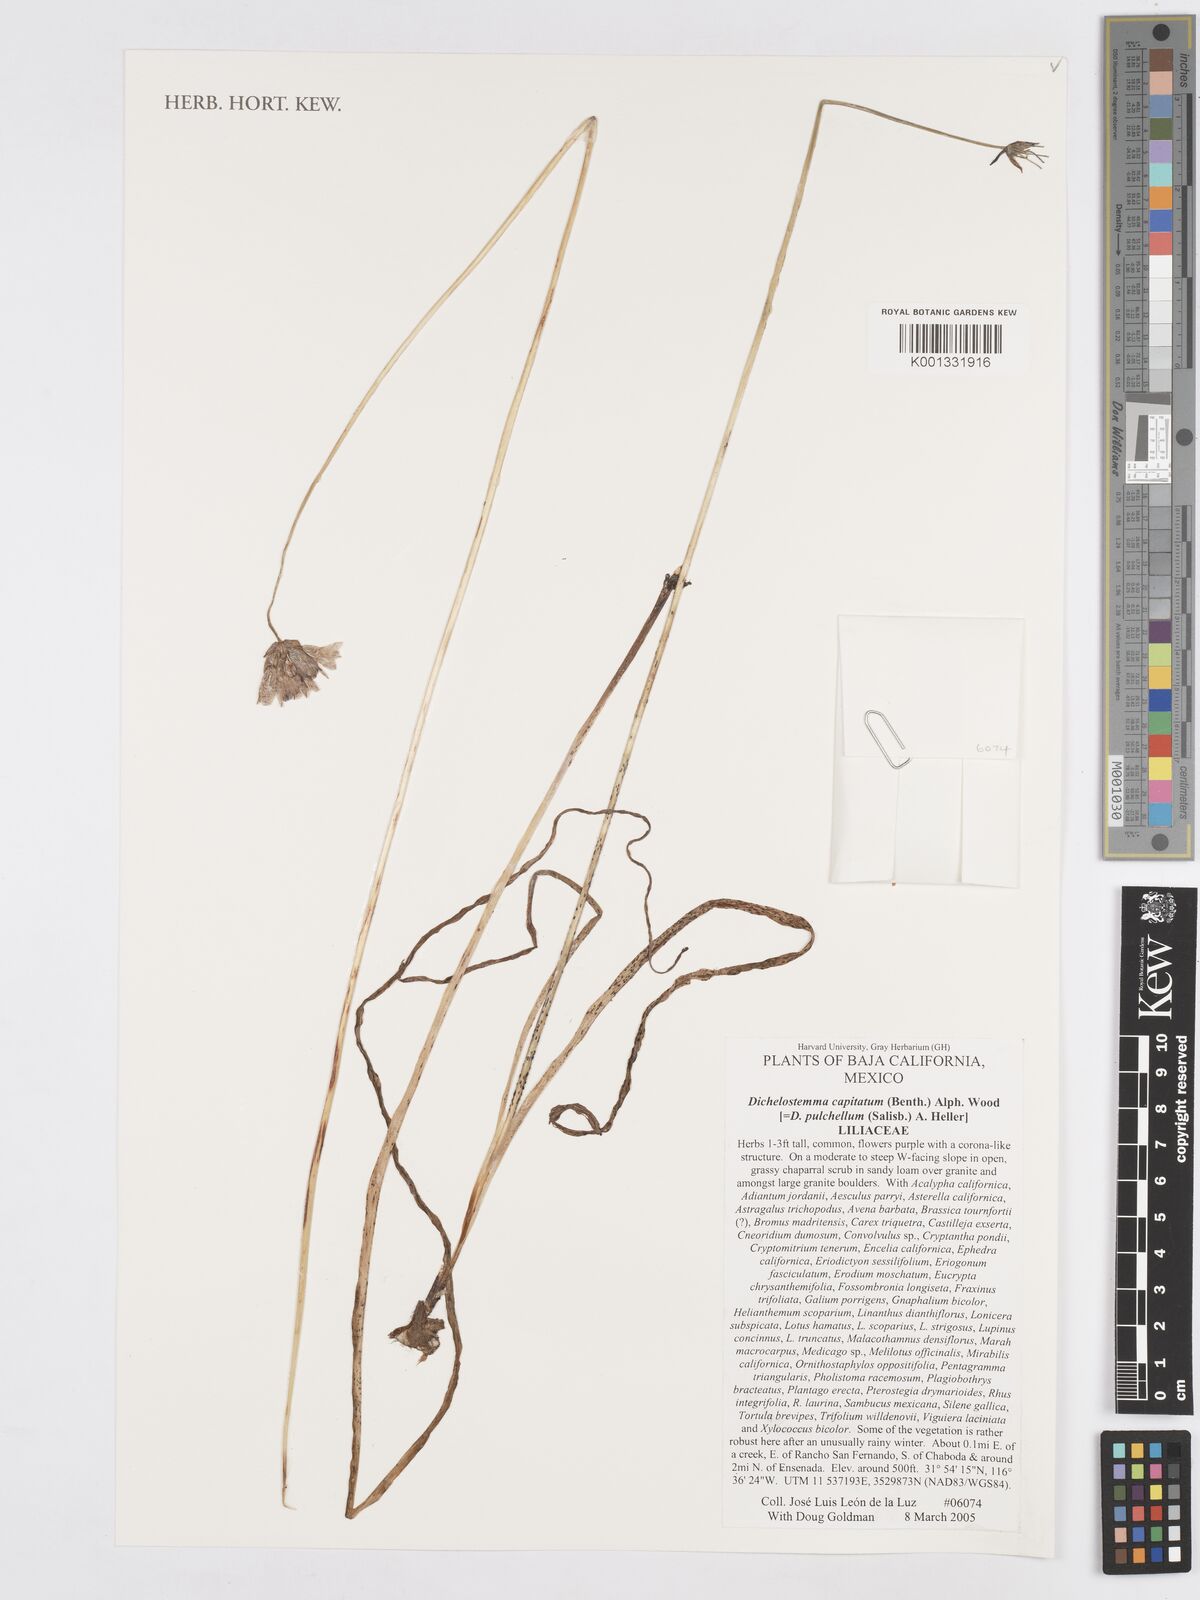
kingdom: Plantae
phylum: Tracheophyta
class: Liliopsida
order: Asparagales
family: Asparagaceae
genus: Dichelostemma
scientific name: Dichelostemma congestum
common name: Fork-tooth ookow
